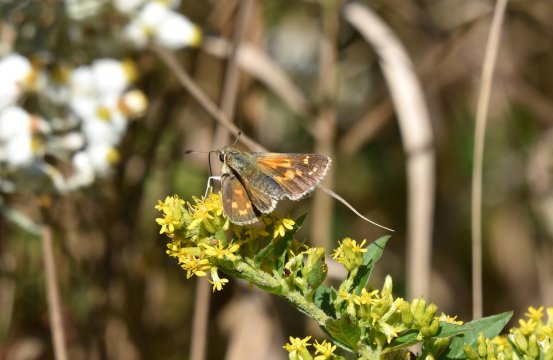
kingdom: Animalia
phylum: Arthropoda
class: Insecta
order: Lepidoptera
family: Hesperiidae
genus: Hesperia
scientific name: Hesperia comma
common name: Common Branded Skipper
